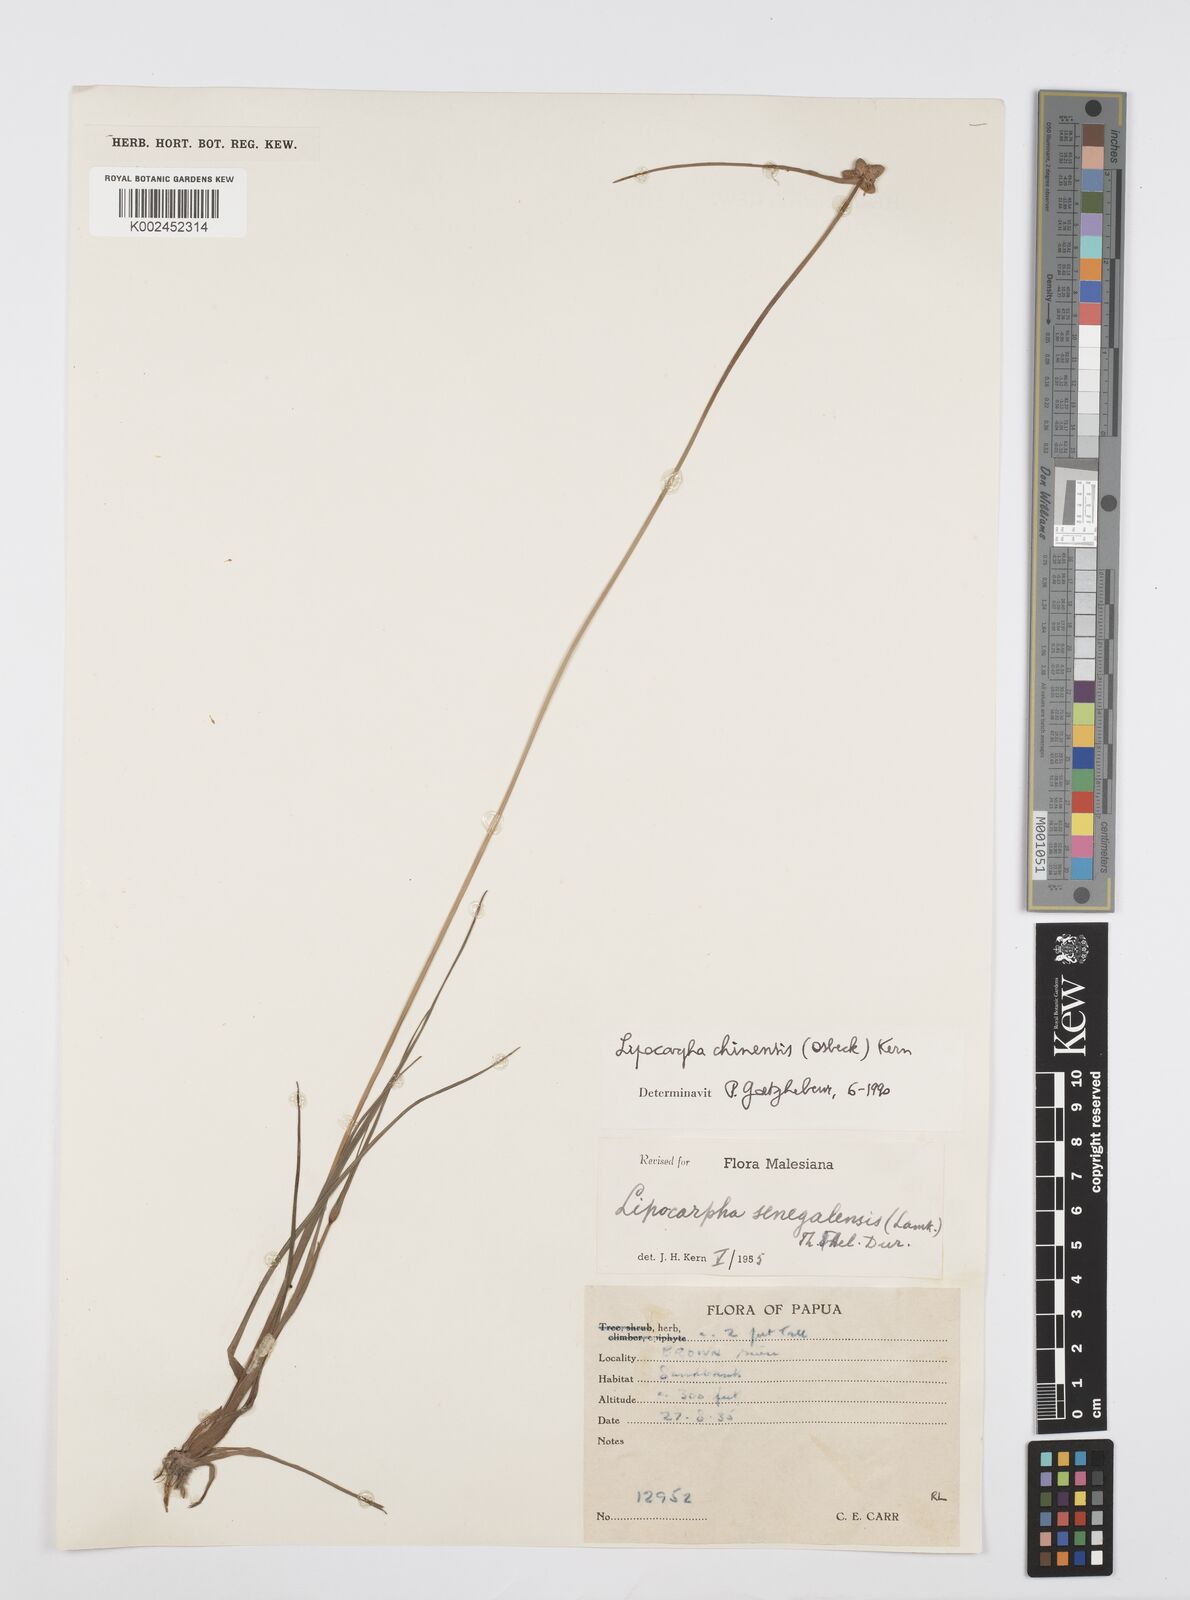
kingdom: Plantae
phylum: Tracheophyta
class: Liliopsida
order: Poales
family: Cyperaceae
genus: Cyperus
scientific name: Cyperus
